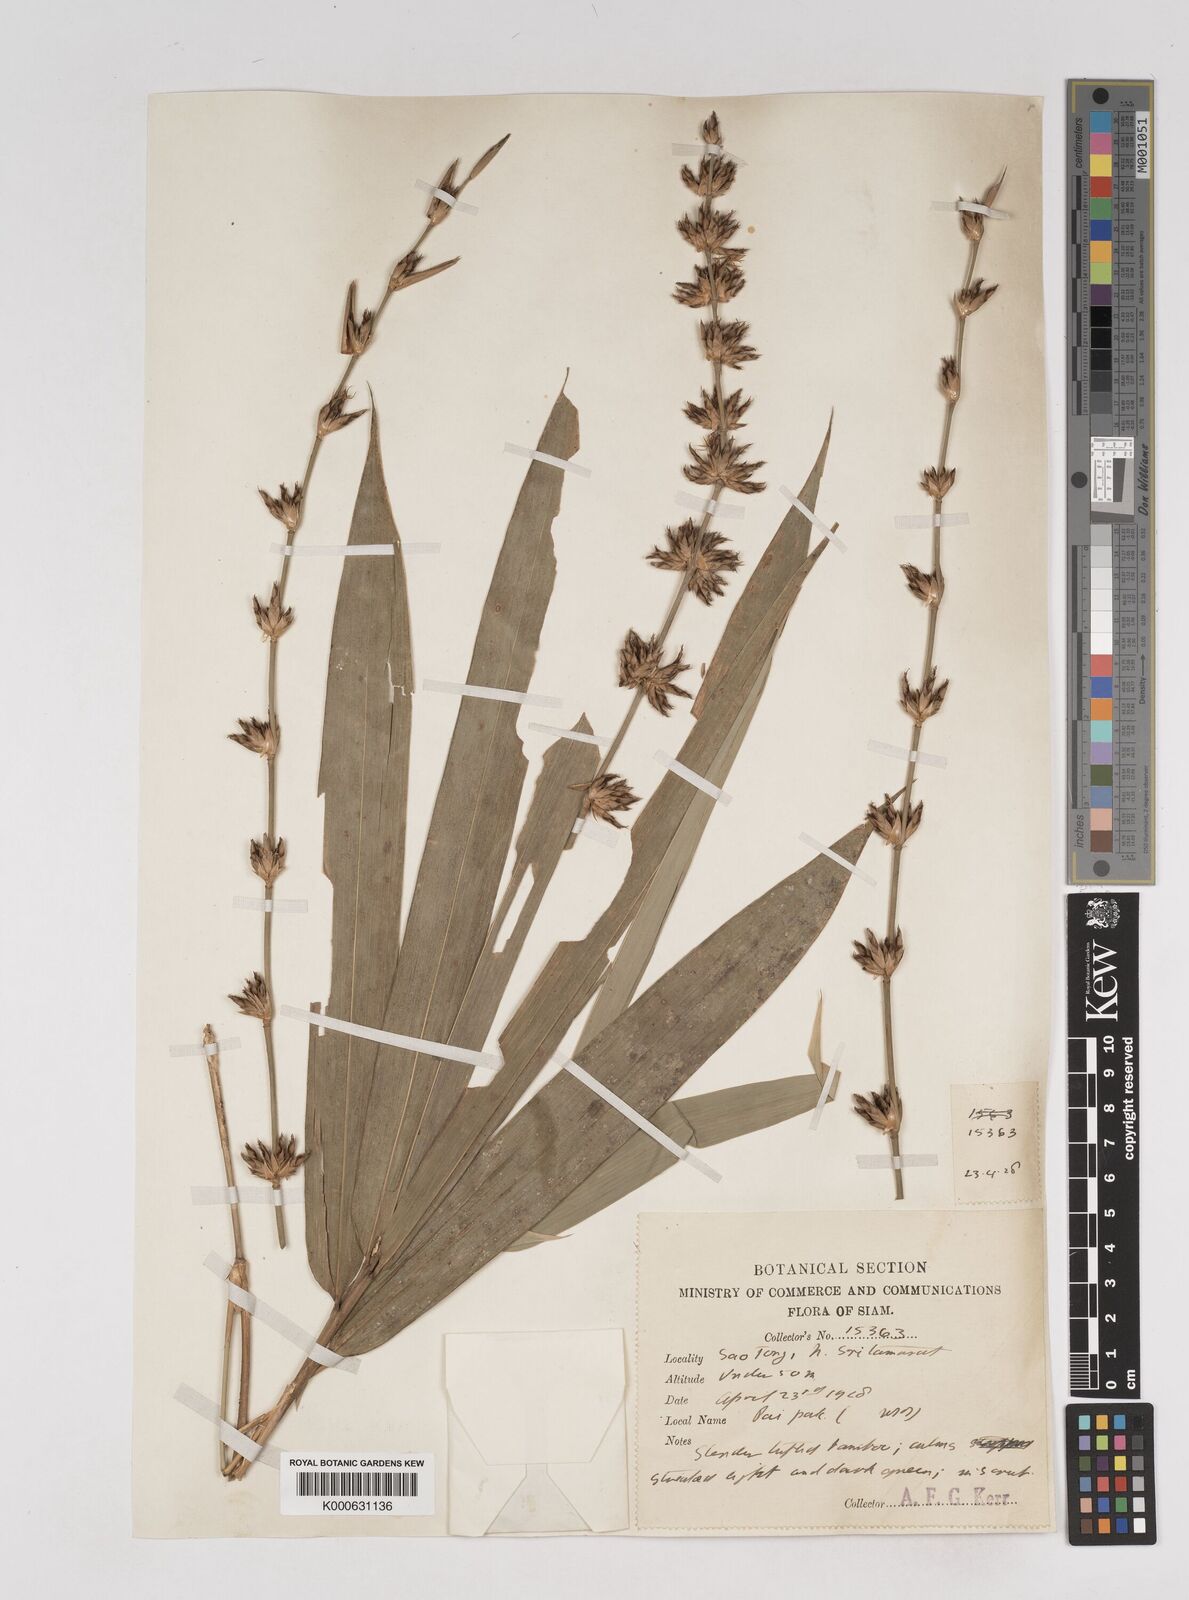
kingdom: Plantae
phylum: Tracheophyta
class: Liliopsida
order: Poales
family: Poaceae
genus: Gigantochloa
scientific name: Gigantochloa
